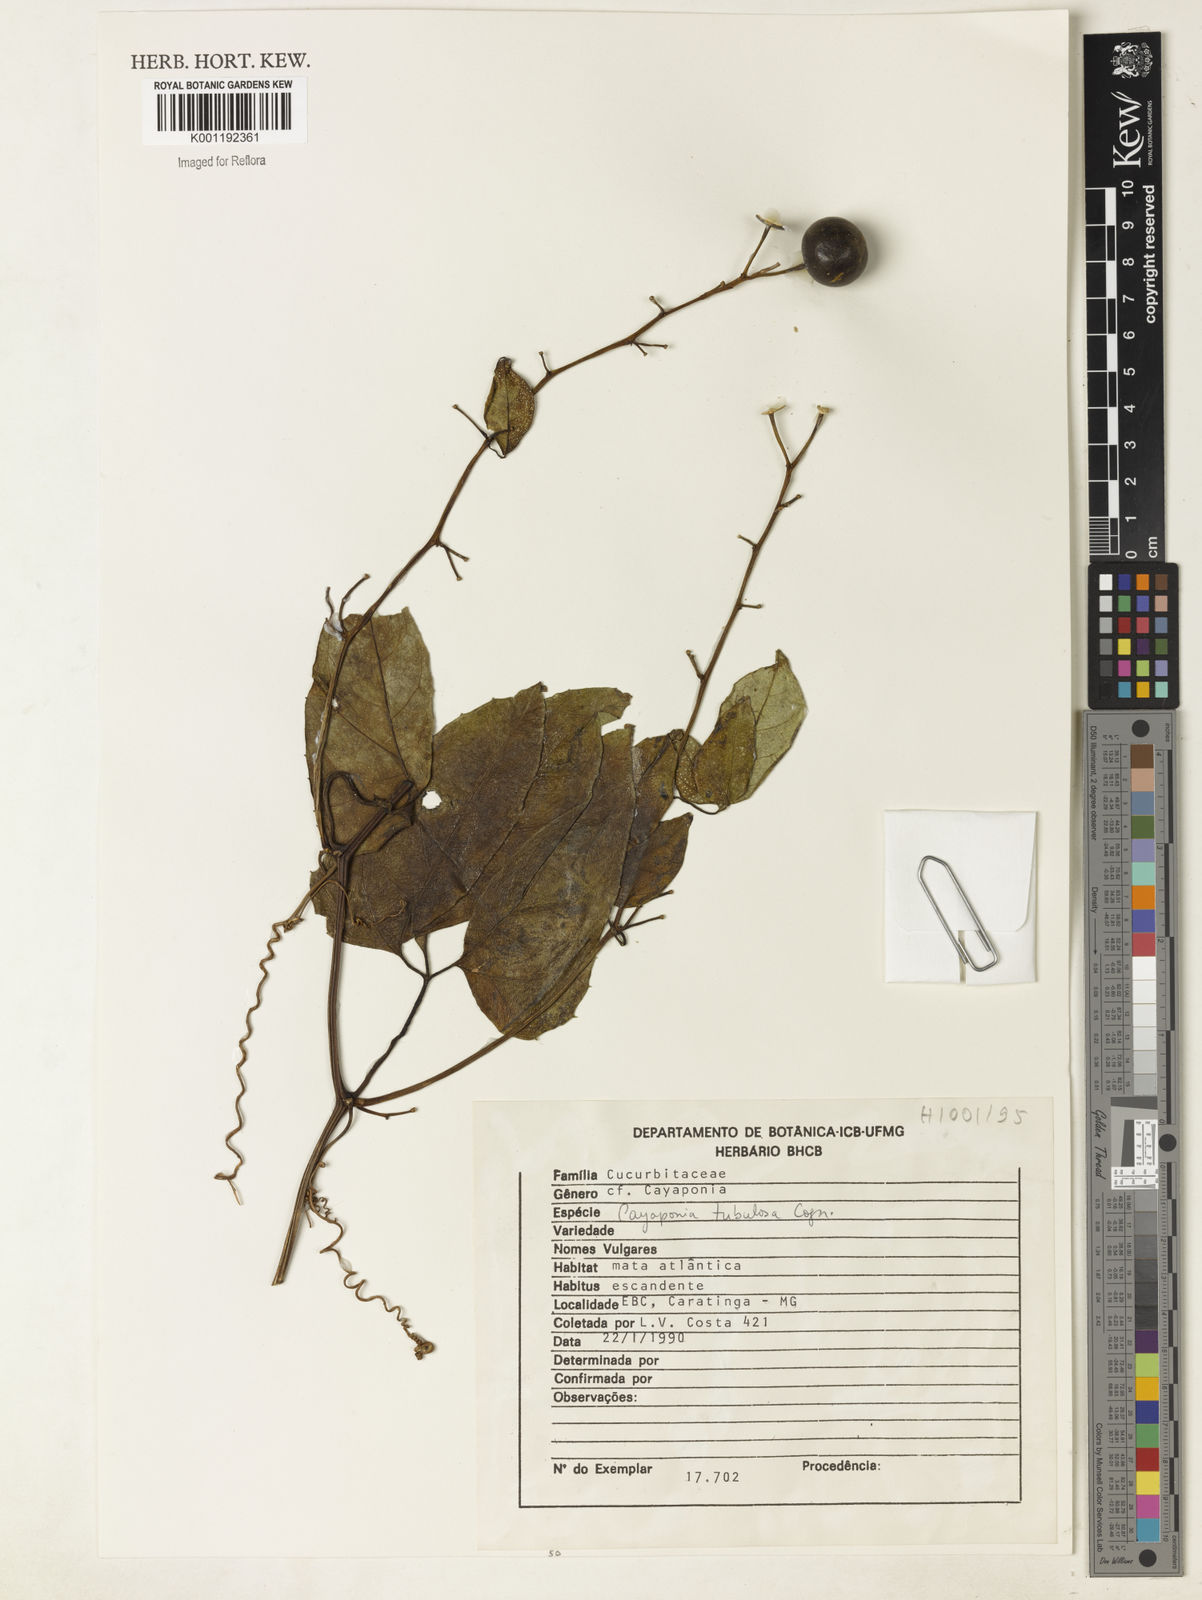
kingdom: Plantae
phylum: Tracheophyta
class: Magnoliopsida
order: Cucurbitales
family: Cucurbitaceae
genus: Cayaponia
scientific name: Cayaponia tubulosa
